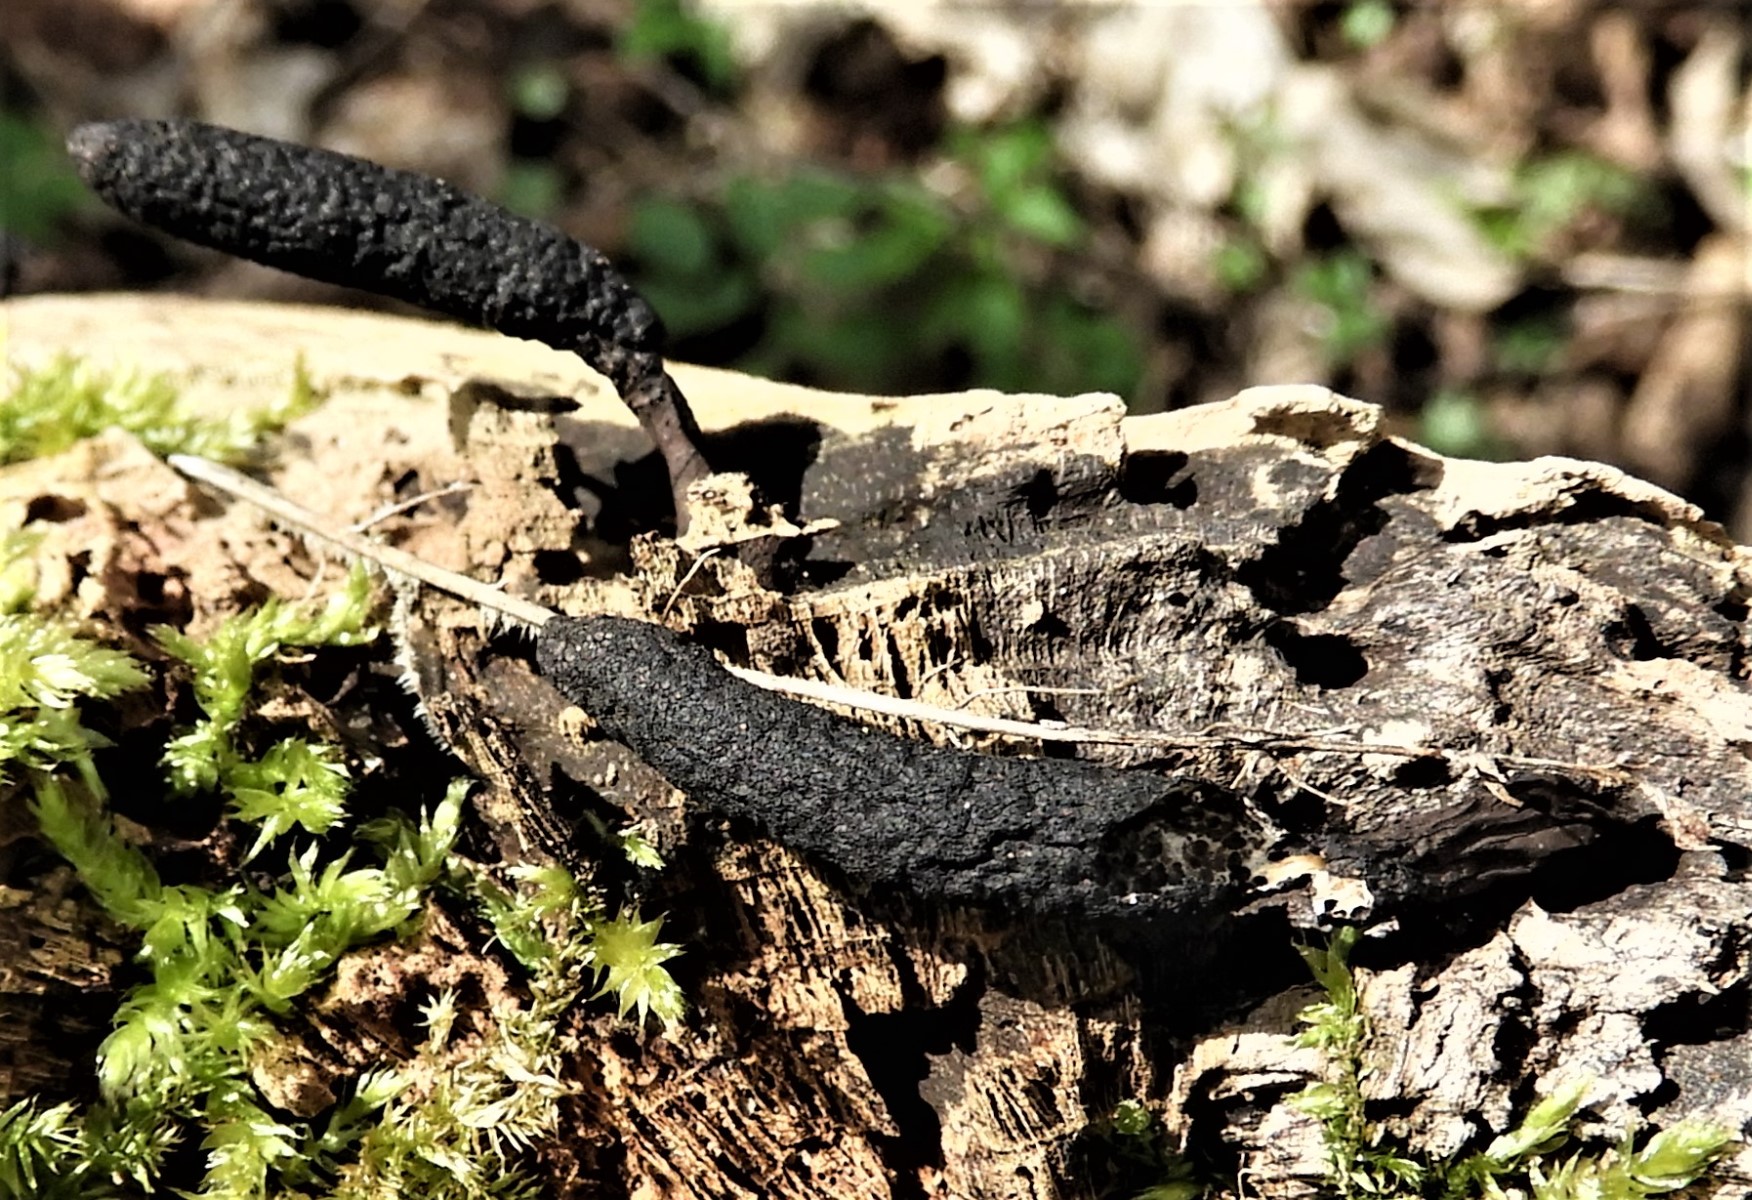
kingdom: Fungi
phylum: Ascomycota
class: Sordariomycetes
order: Xylariales
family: Xylariaceae
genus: Xylaria
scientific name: Xylaria
